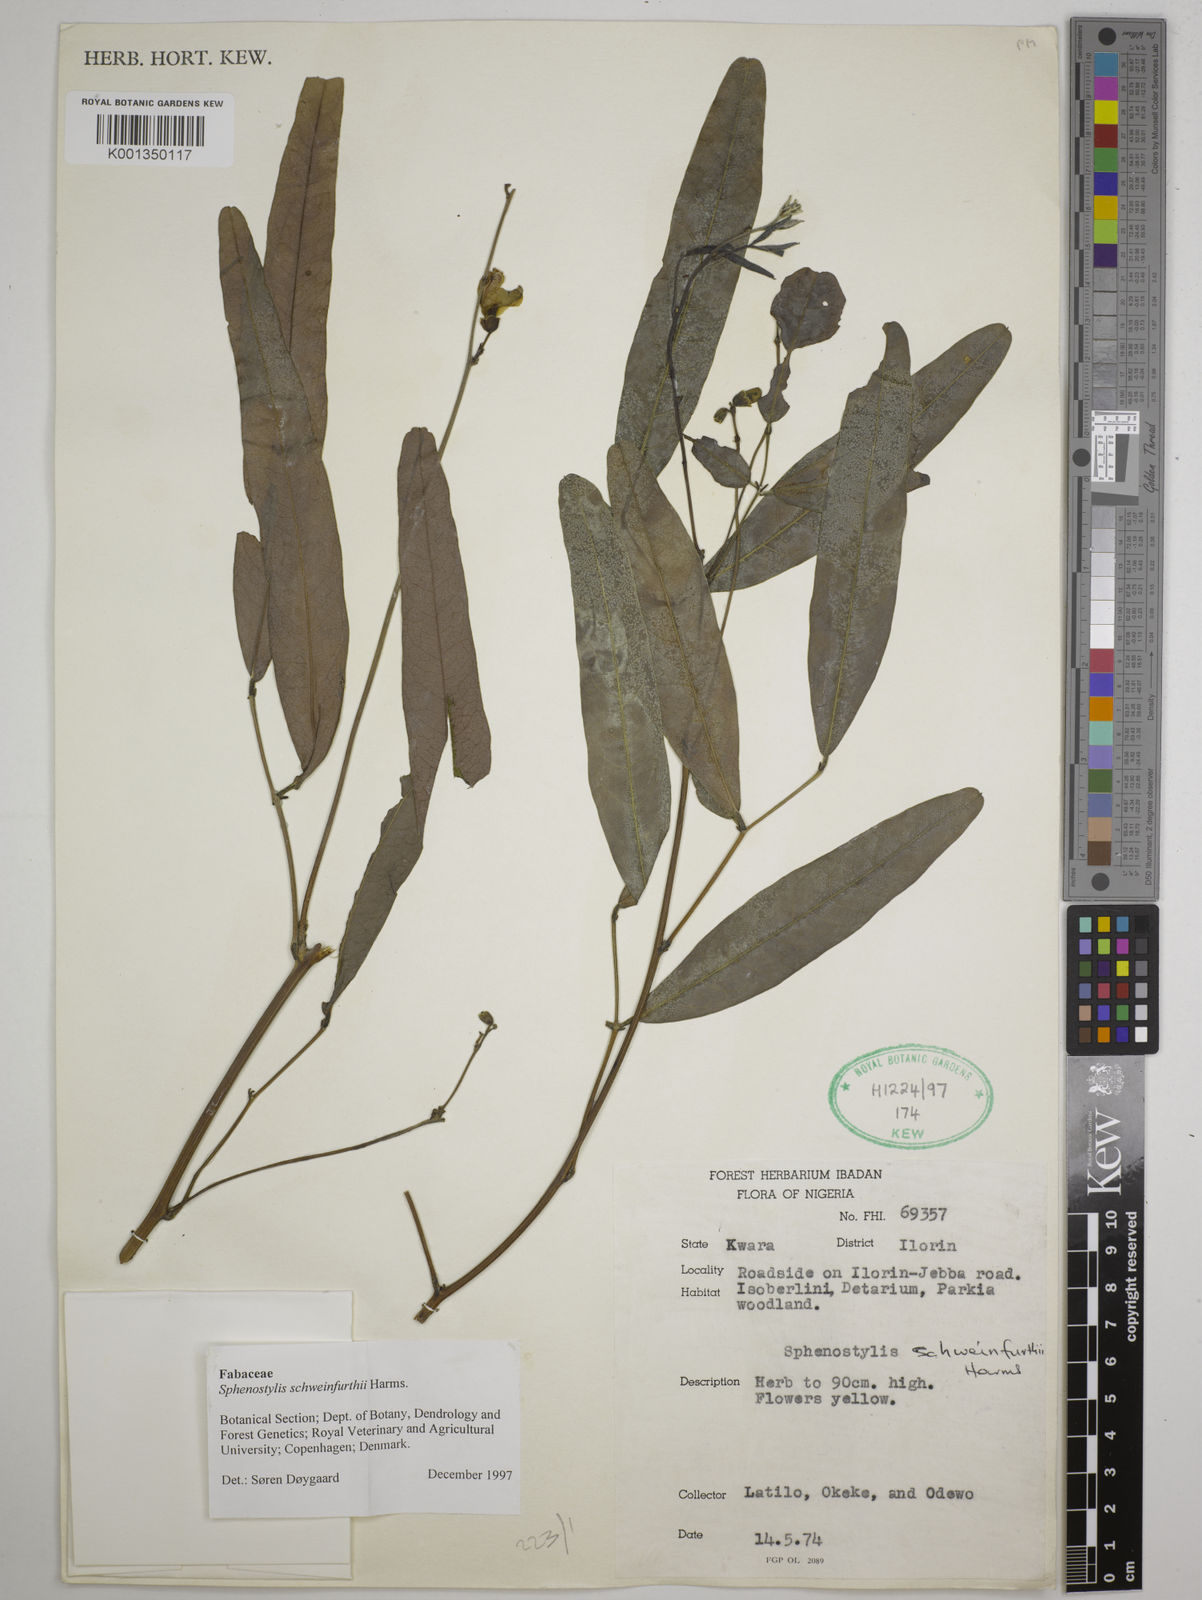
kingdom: Plantae
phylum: Tracheophyta
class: Magnoliopsida
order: Fabales
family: Fabaceae
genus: Sphenostylis
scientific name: Sphenostylis schweinfurthii
